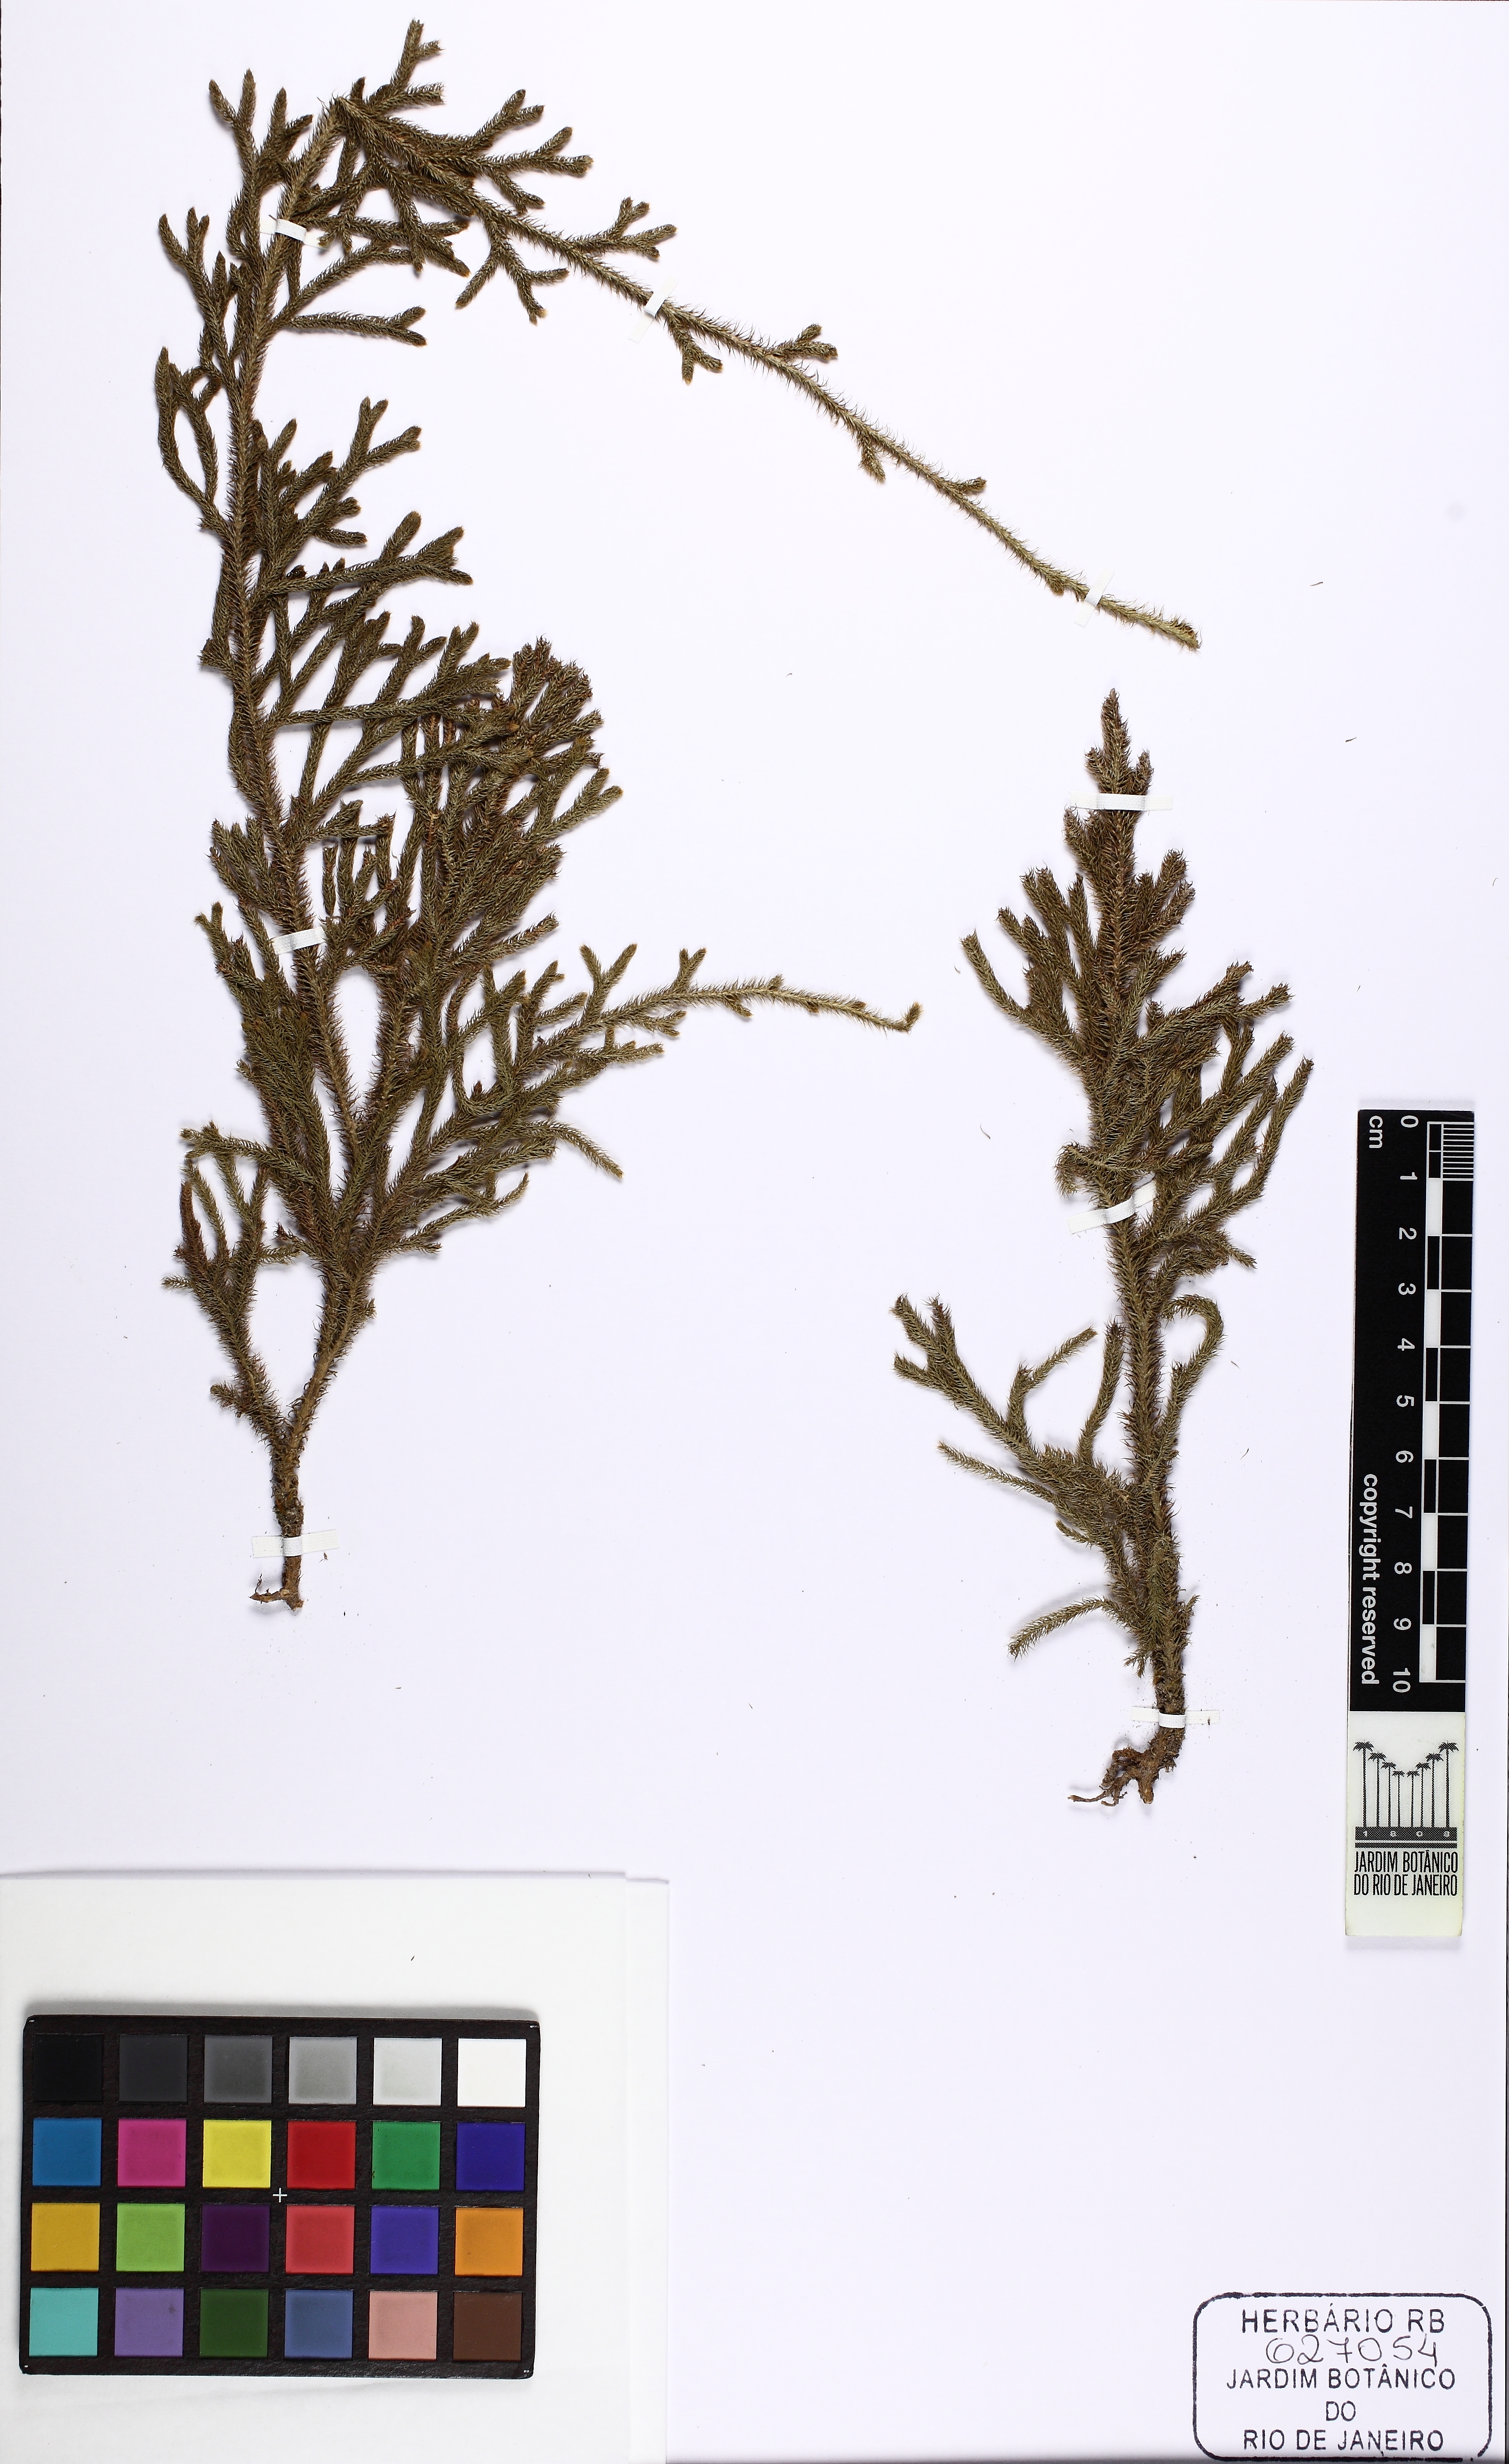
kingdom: Plantae
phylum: Tracheophyta
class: Lycopodiopsida
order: Lycopodiales
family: Lycopodiaceae
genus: Palhinhaea
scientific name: Palhinhaea camporum
